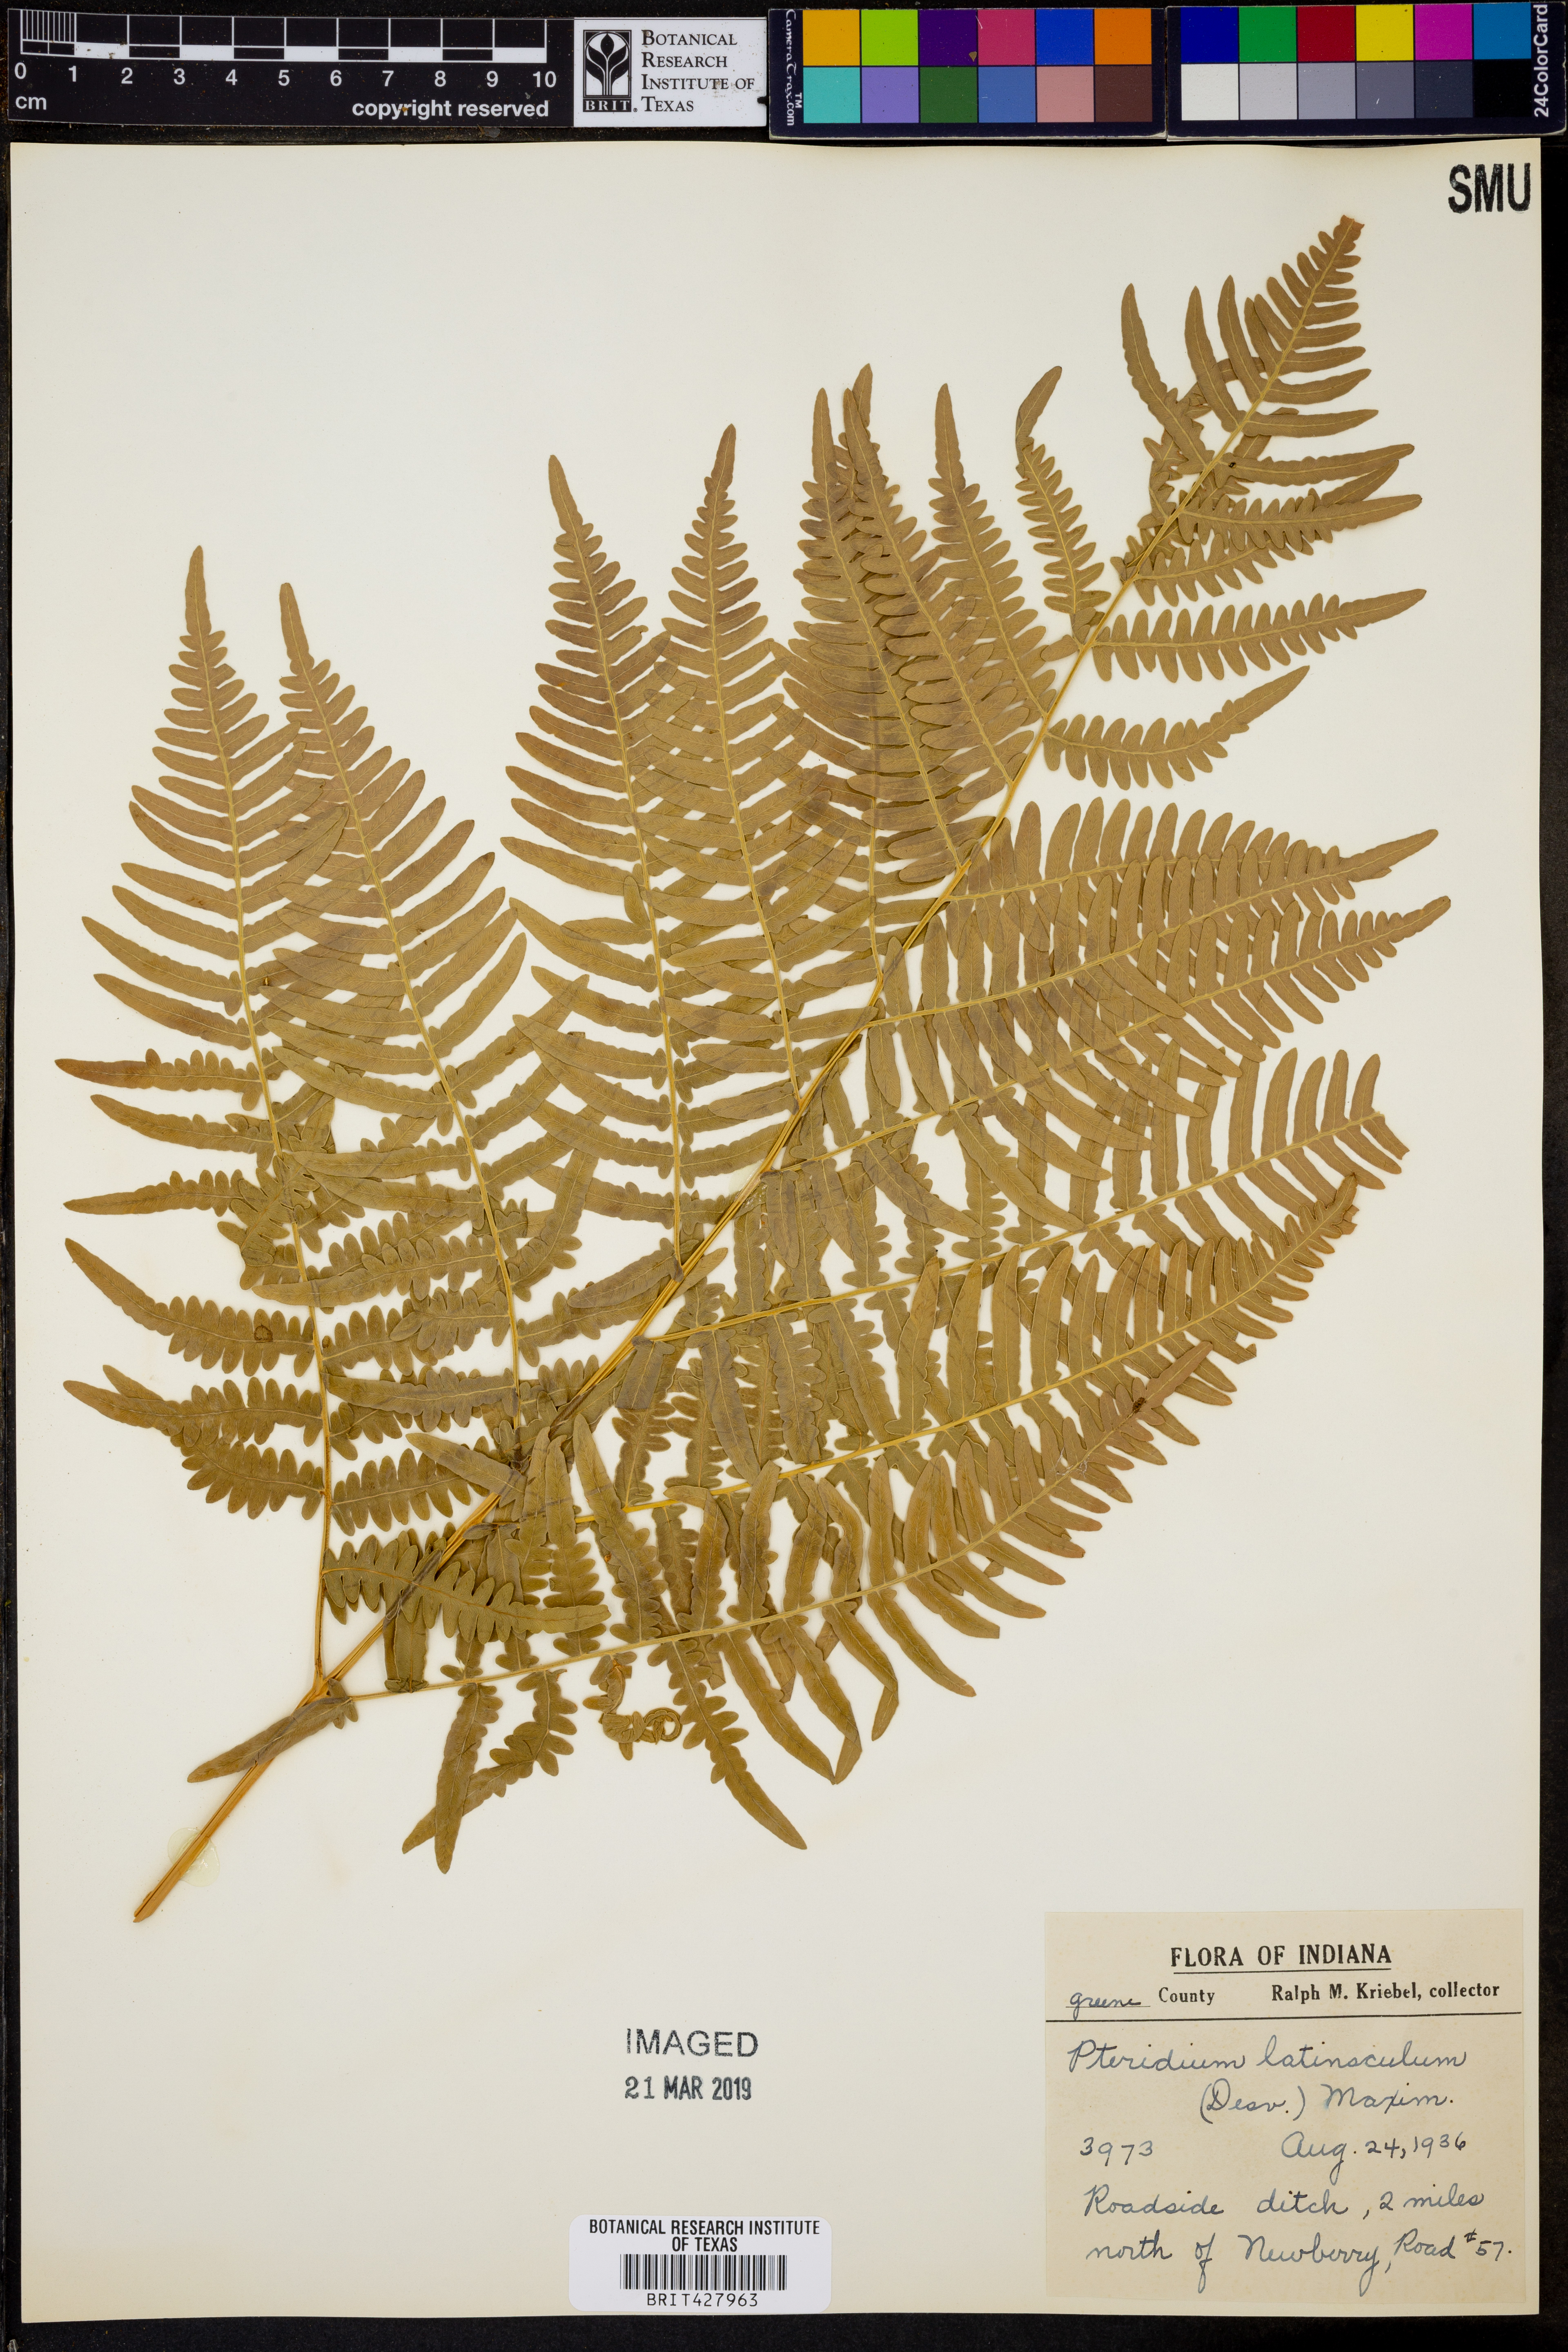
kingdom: Plantae
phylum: Tracheophyta
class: Polypodiopsida
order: Polypodiales
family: Dennstaedtiaceae
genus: Pteridium
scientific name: Pteridium aquilinum
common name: Bracken
